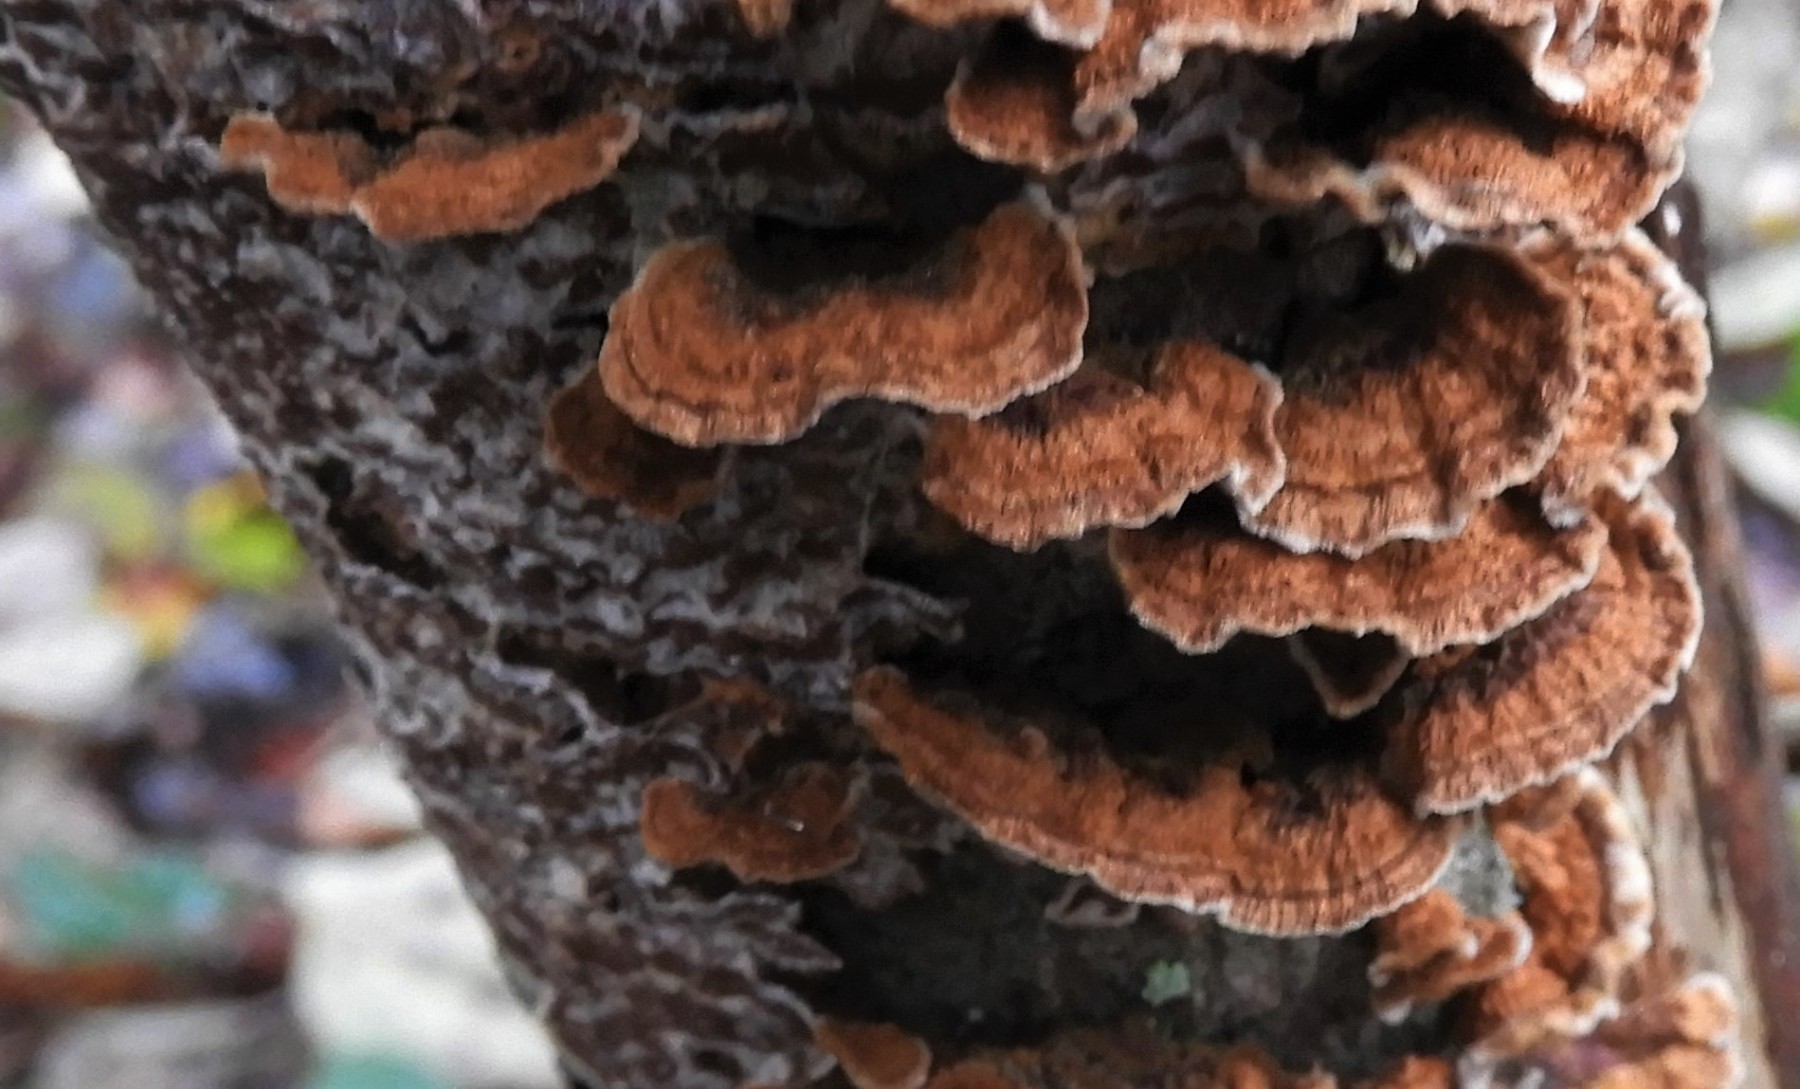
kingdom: Fungi
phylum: Basidiomycota
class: Agaricomycetes
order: Hymenochaetales
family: Hymenochaetaceae
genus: Hydnoporia
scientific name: Hydnoporia tabacina
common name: tobaksbrun ruslædersvamp
